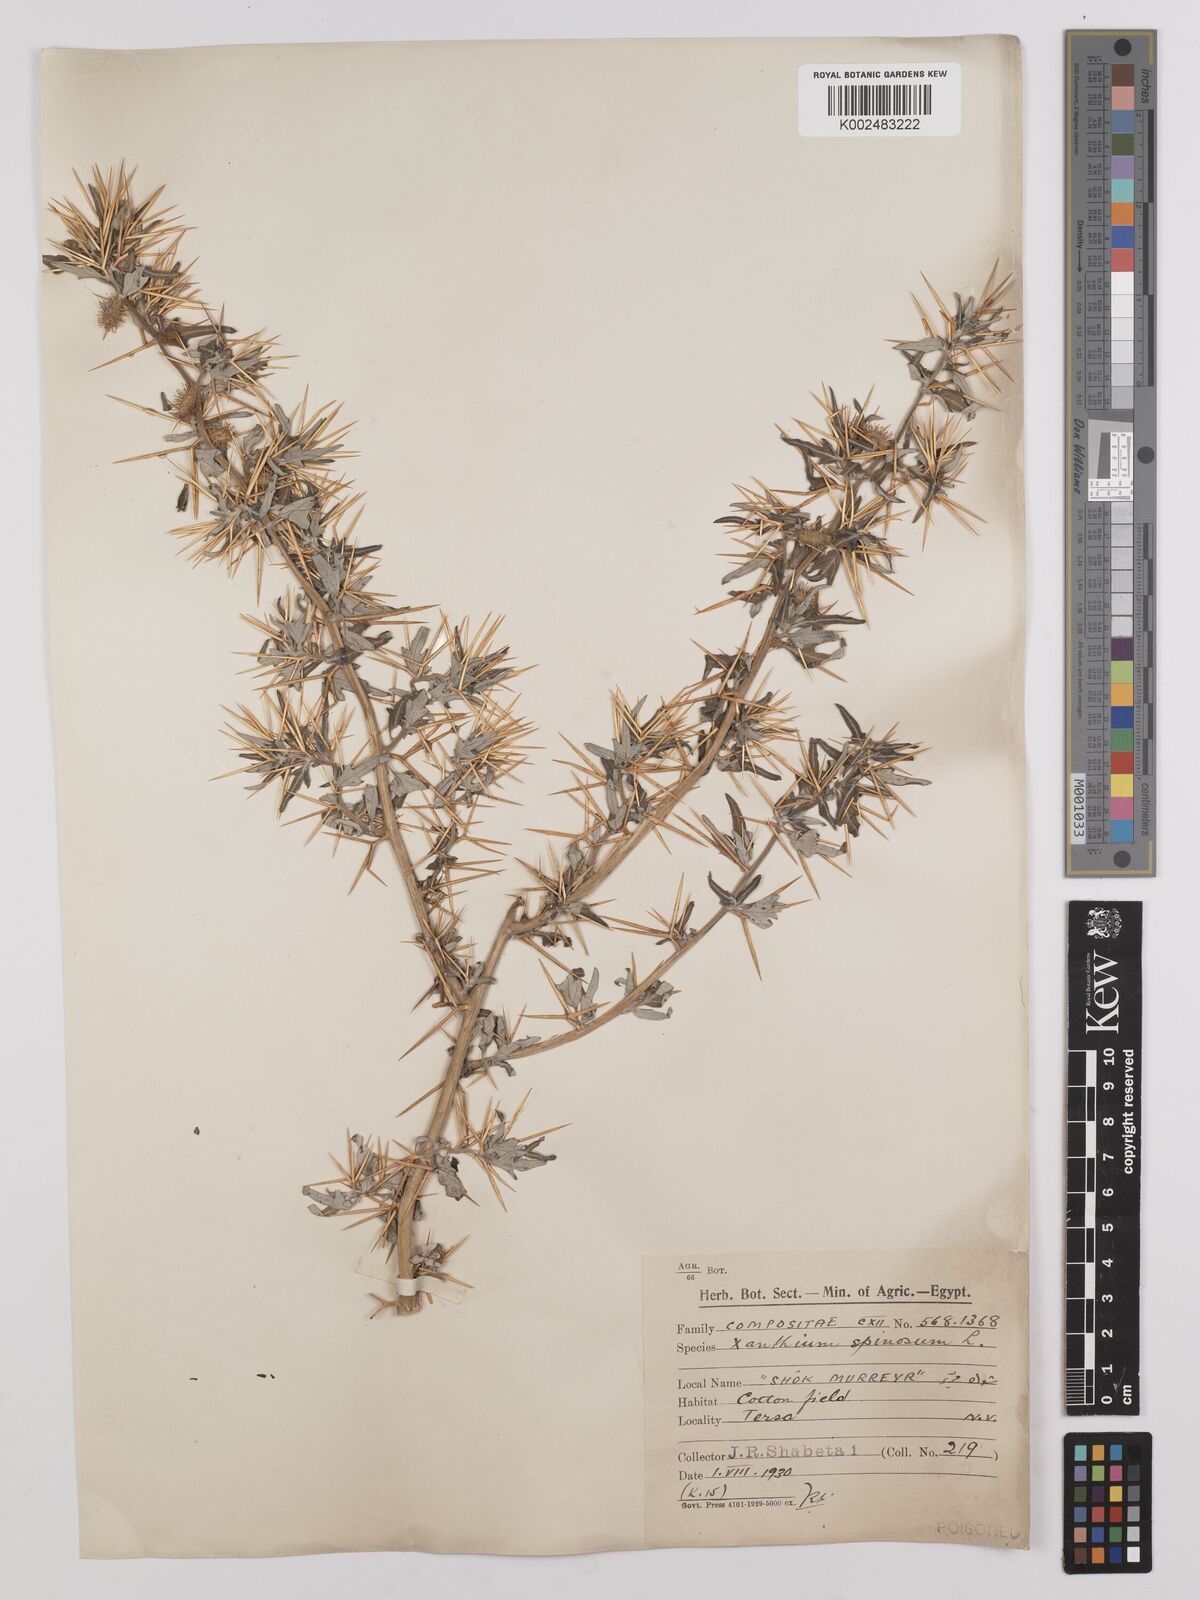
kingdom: Plantae
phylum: Tracheophyta
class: Magnoliopsida
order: Asterales
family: Asteraceae
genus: Xanthium
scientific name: Xanthium spinosum
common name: Spiny cocklebur
